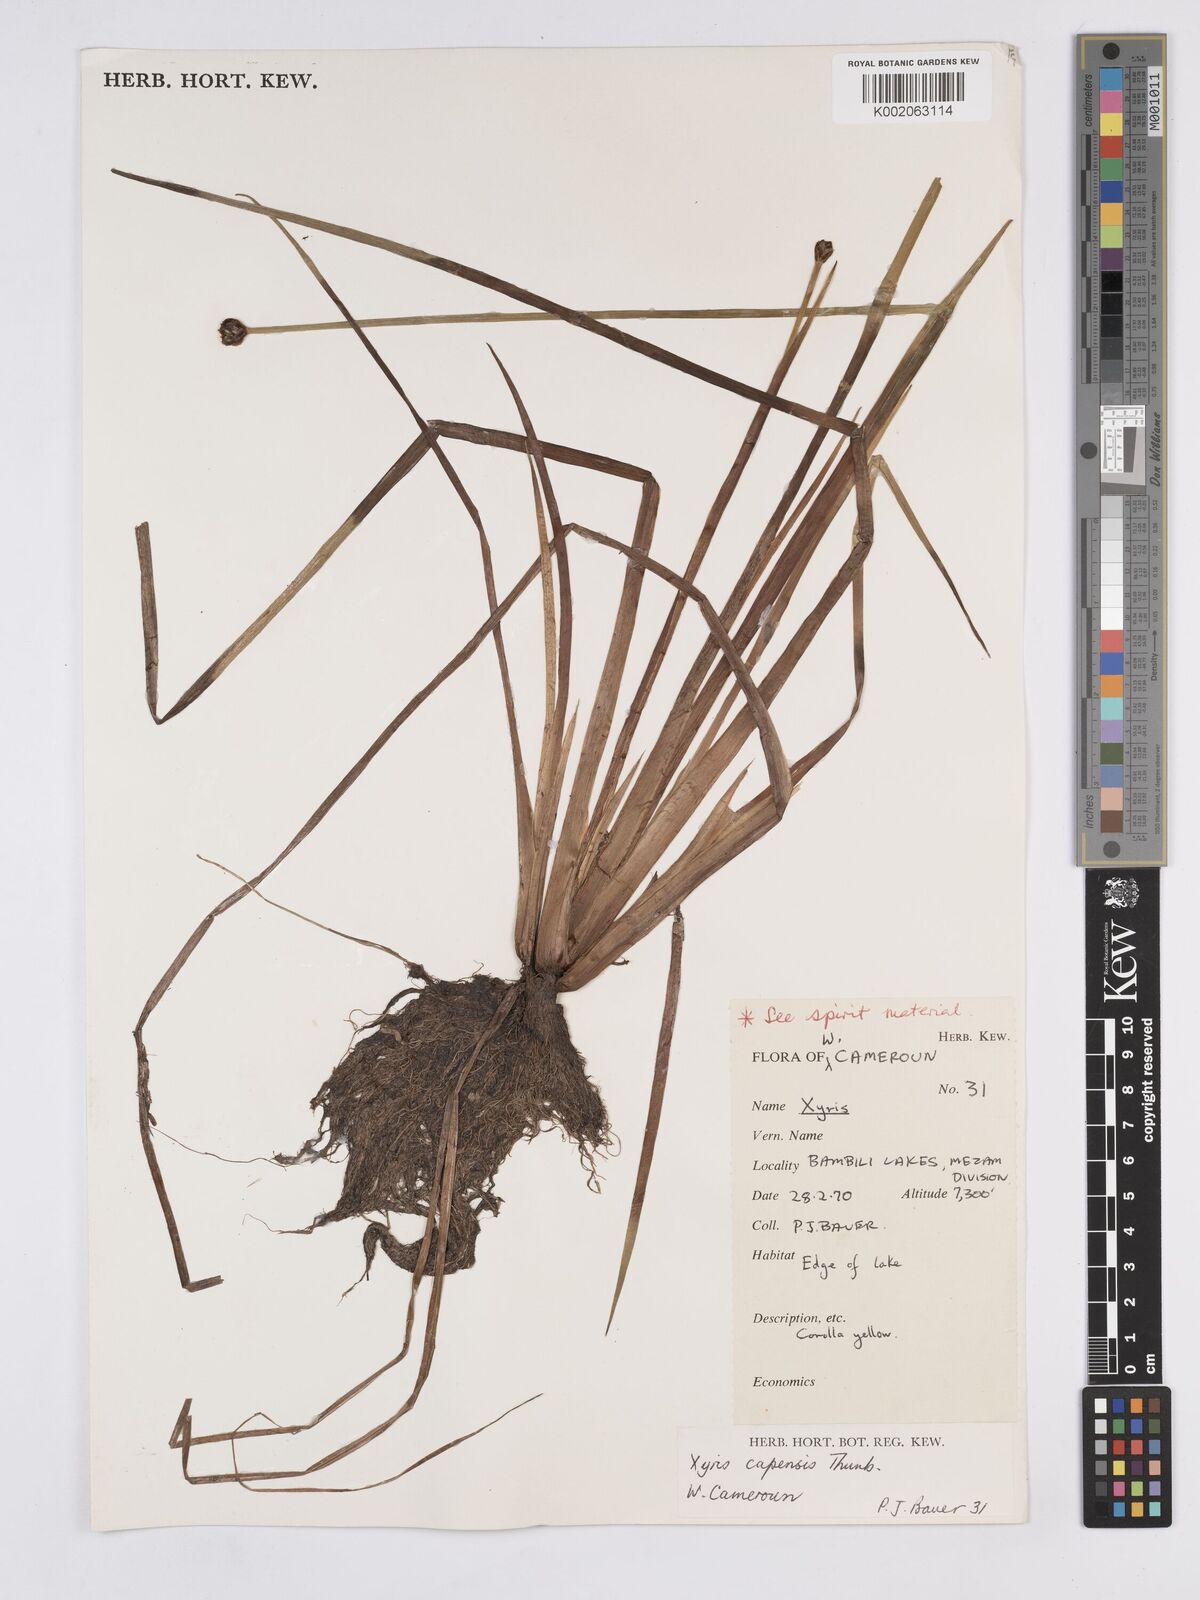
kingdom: Plantae
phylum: Tracheophyta
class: Liliopsida
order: Poales
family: Xyridaceae
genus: Xyris
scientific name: Xyris capensis
